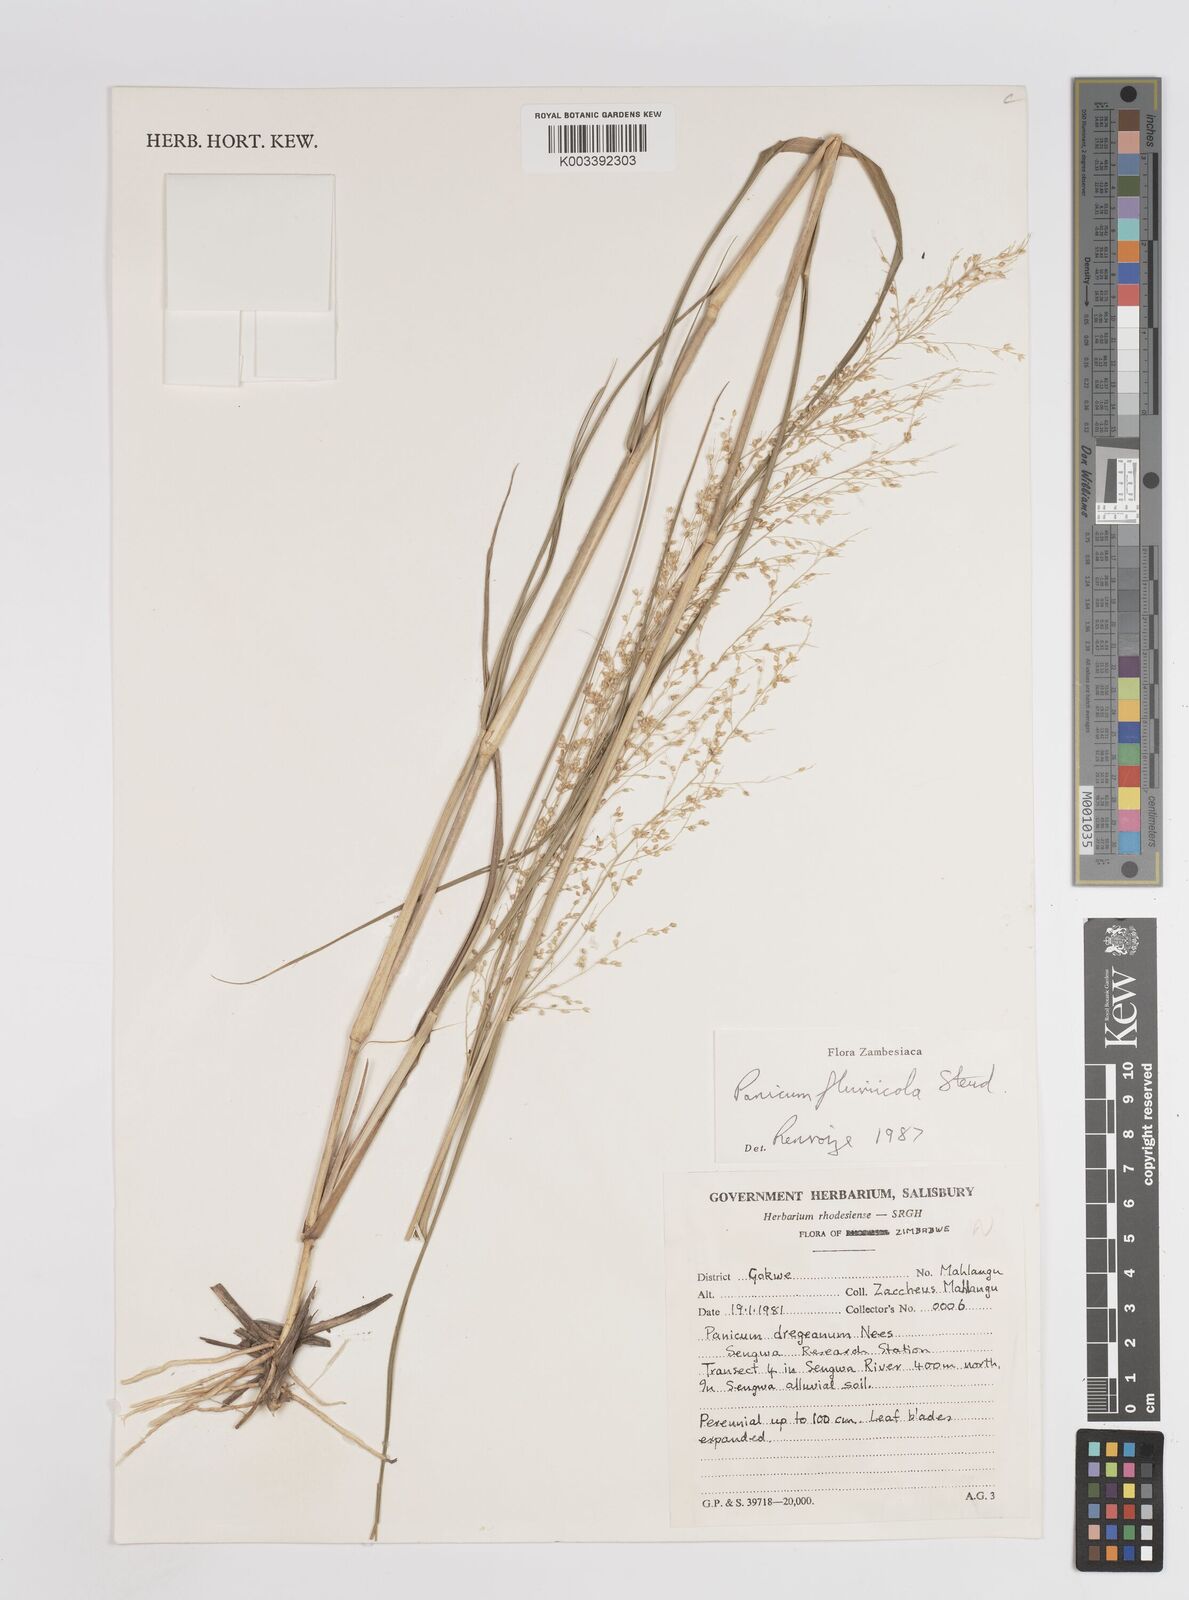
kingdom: Plantae
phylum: Tracheophyta
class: Liliopsida
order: Poales
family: Poaceae
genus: Panicum
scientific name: Panicum fluviicola
